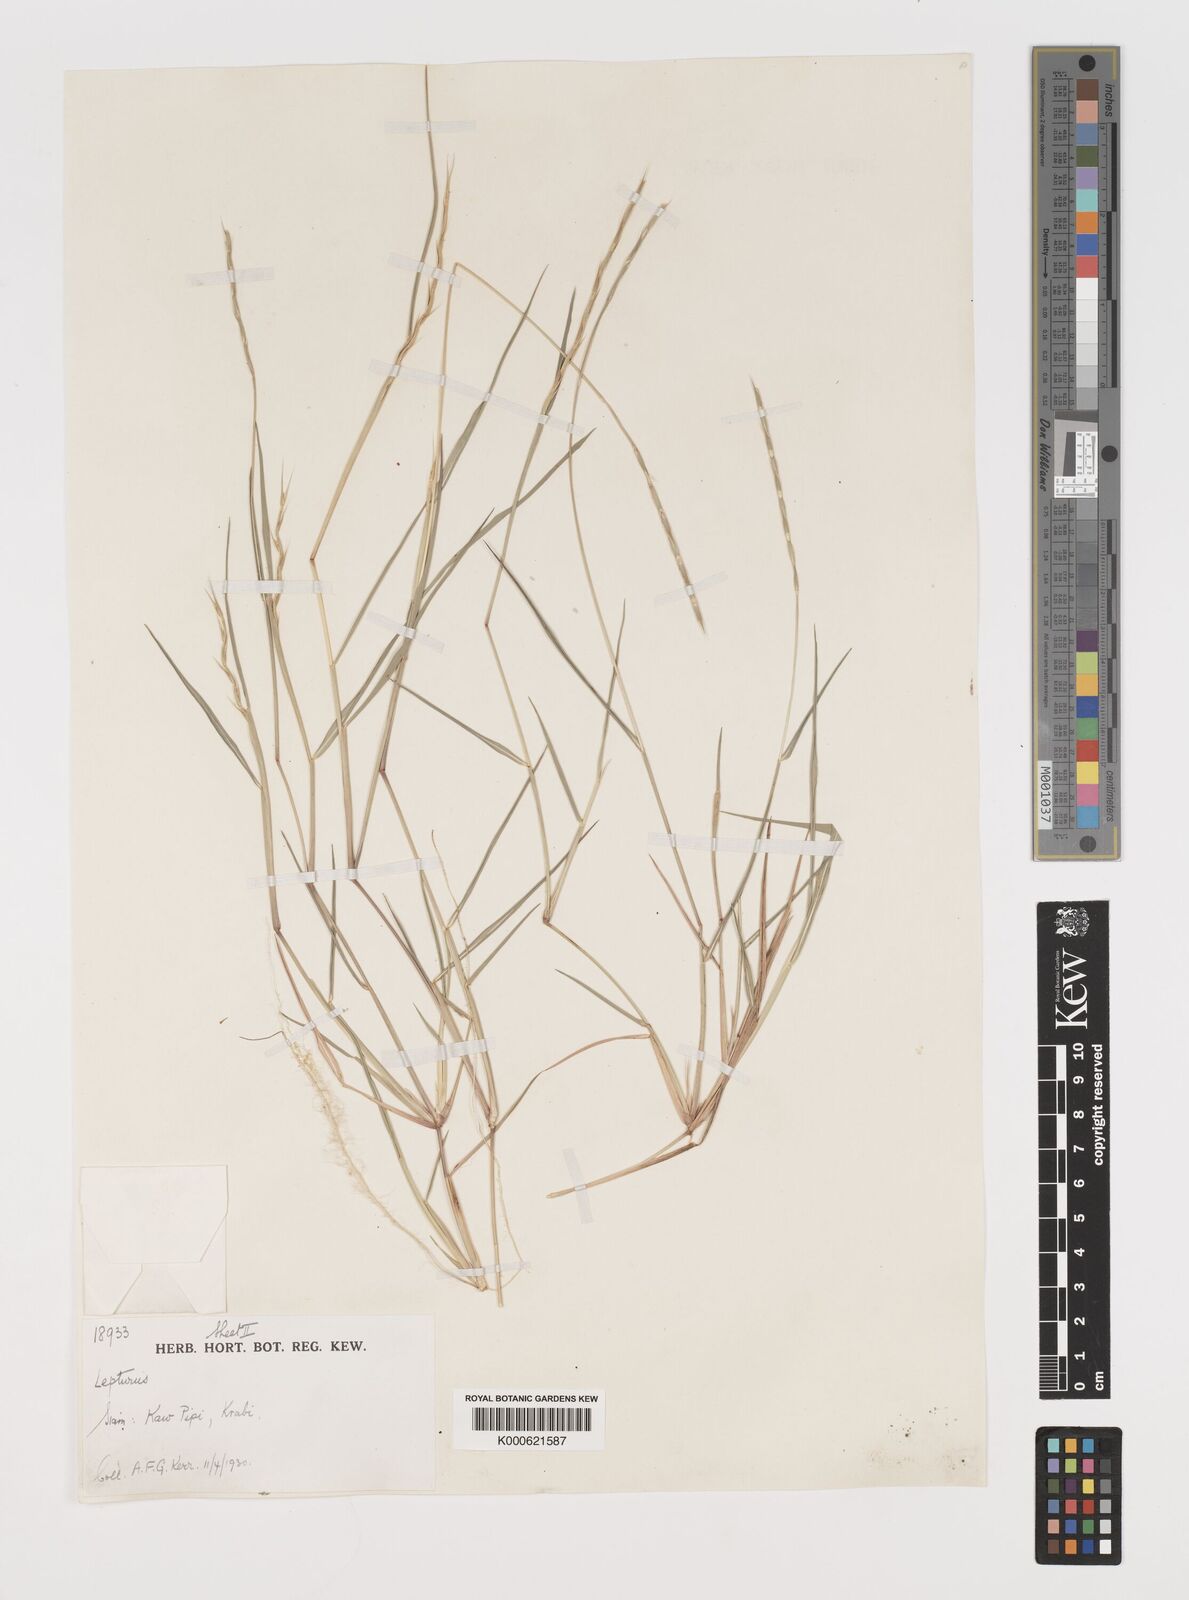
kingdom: Plantae
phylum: Tracheophyta
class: Liliopsida
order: Poales
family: Poaceae
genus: Lepturus
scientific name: Lepturus repens
